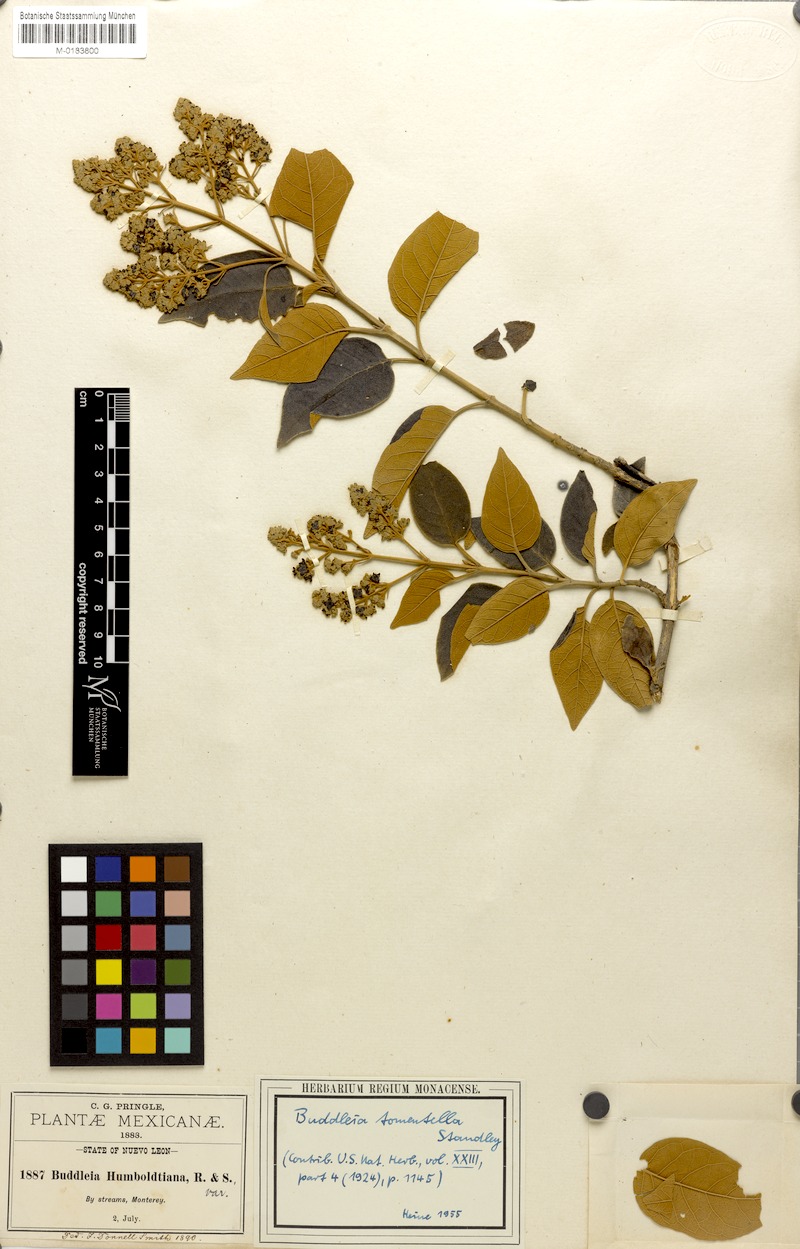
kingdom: Plantae
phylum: Tracheophyta
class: Magnoliopsida
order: Lamiales
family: Scrophulariaceae
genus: Buddleja
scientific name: Buddleja cordata
